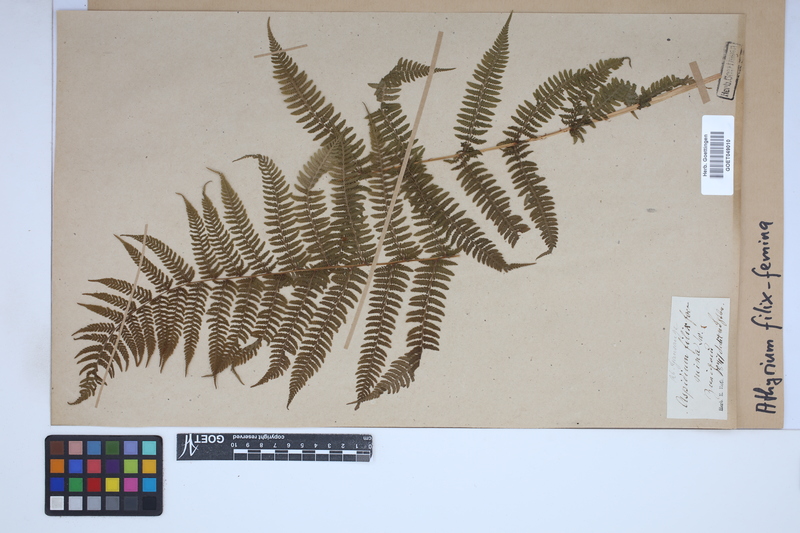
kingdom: Plantae
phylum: Tracheophyta
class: Polypodiopsida
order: Polypodiales
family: Athyriaceae
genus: Athyrium
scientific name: Athyrium filix-femina
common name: Lady fern
